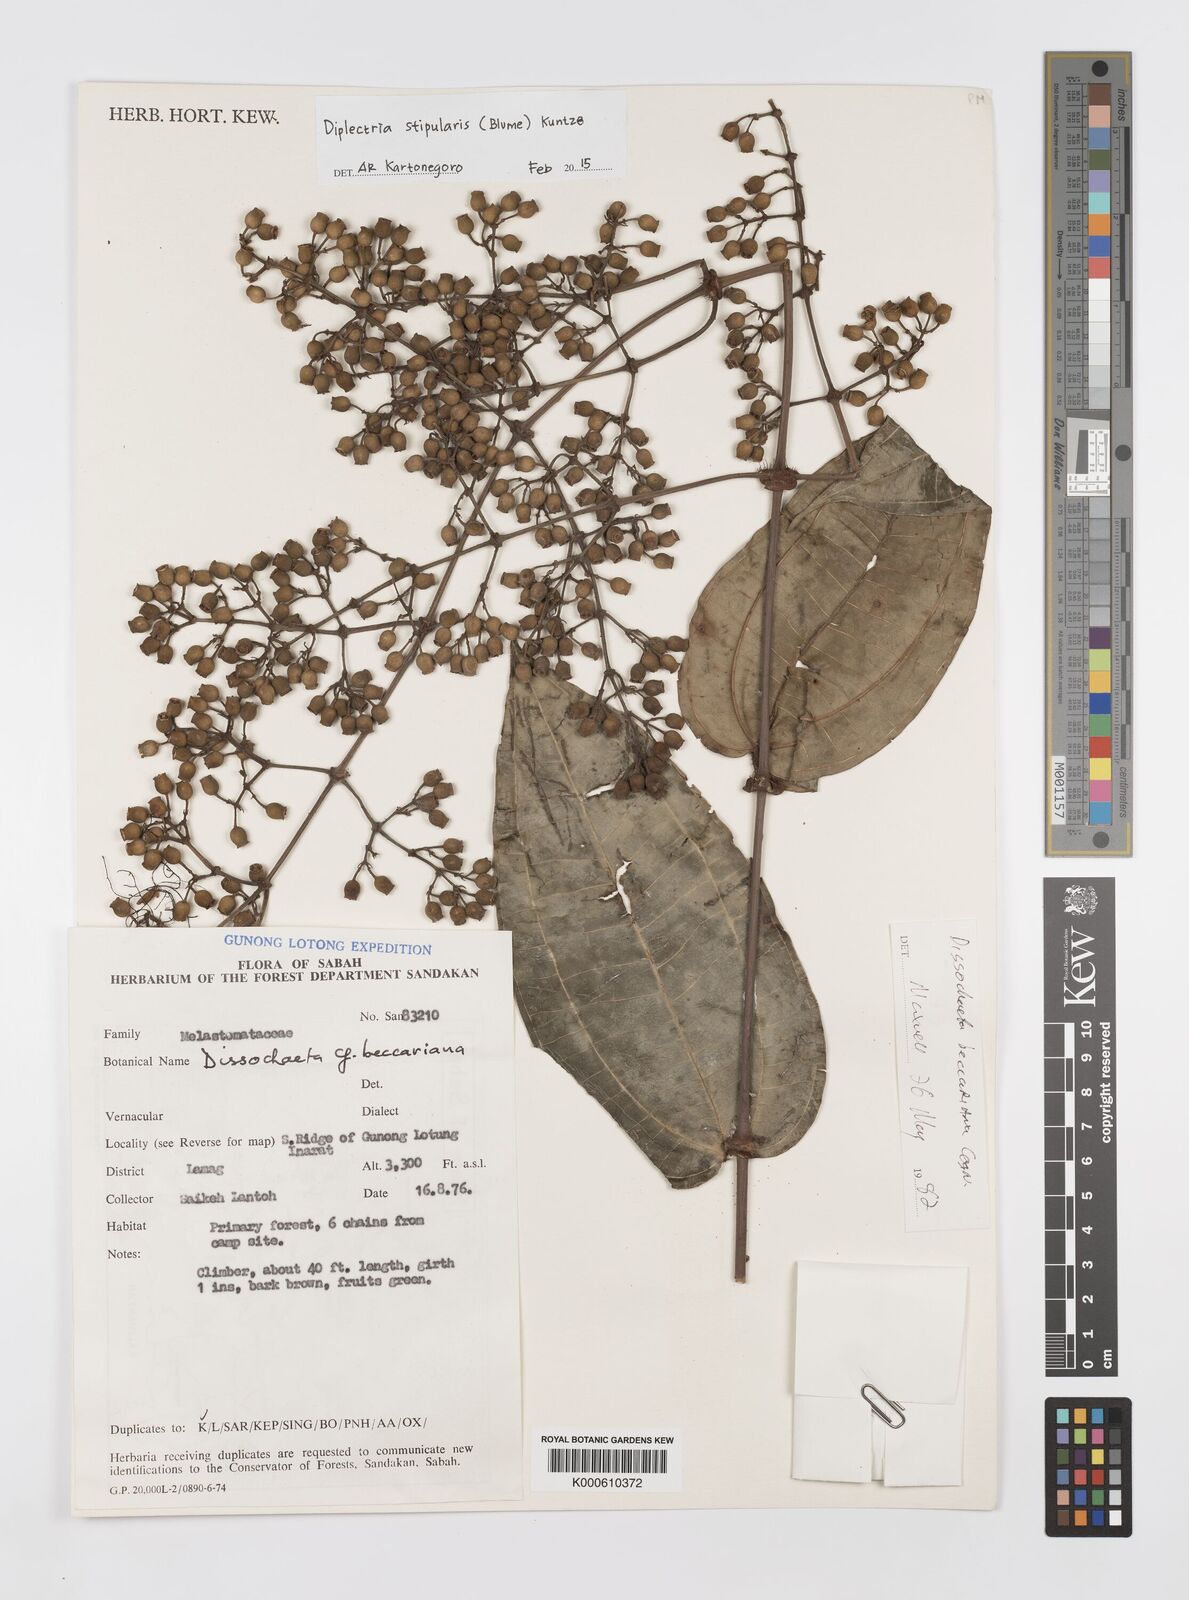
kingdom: Plantae
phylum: Tracheophyta
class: Magnoliopsida
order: Myrtales
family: Melastomataceae
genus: Diplectria
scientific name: Diplectria stipularis
